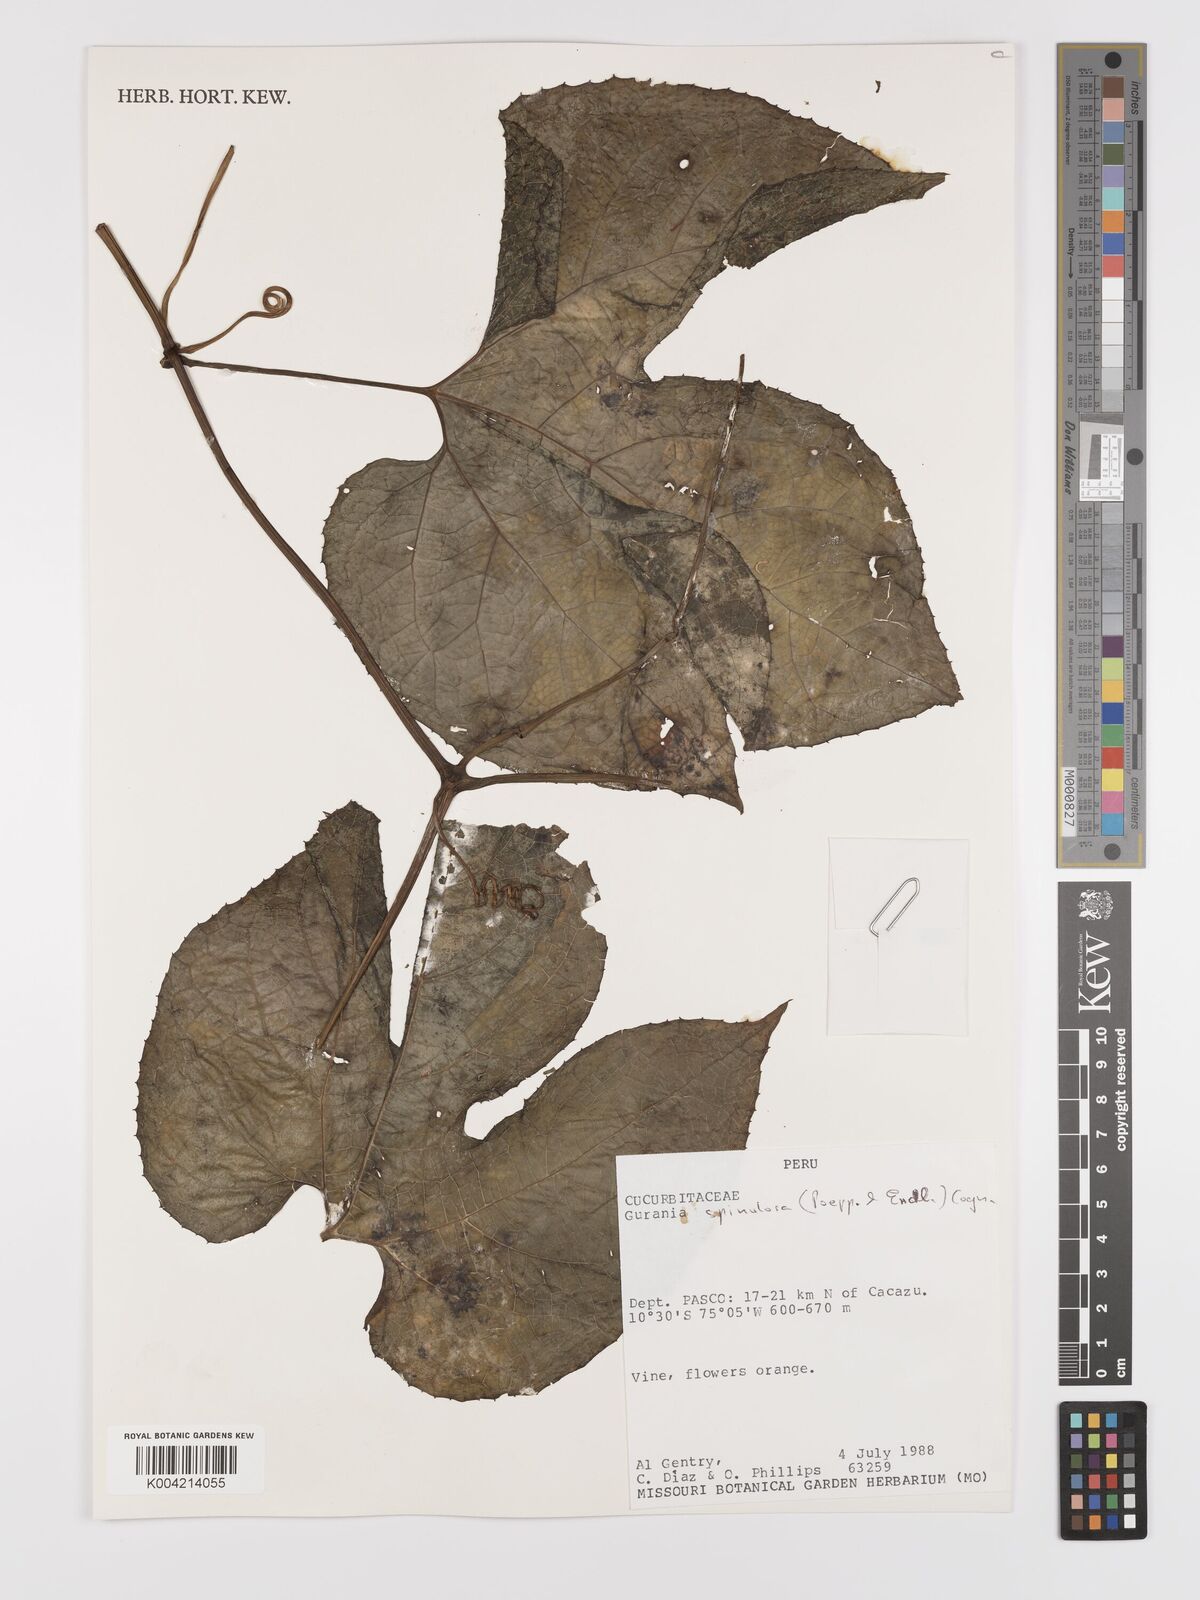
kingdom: Plantae
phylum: Tracheophyta
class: Magnoliopsida
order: Cucurbitales
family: Cucurbitaceae
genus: Gurania
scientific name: Gurania lobata
